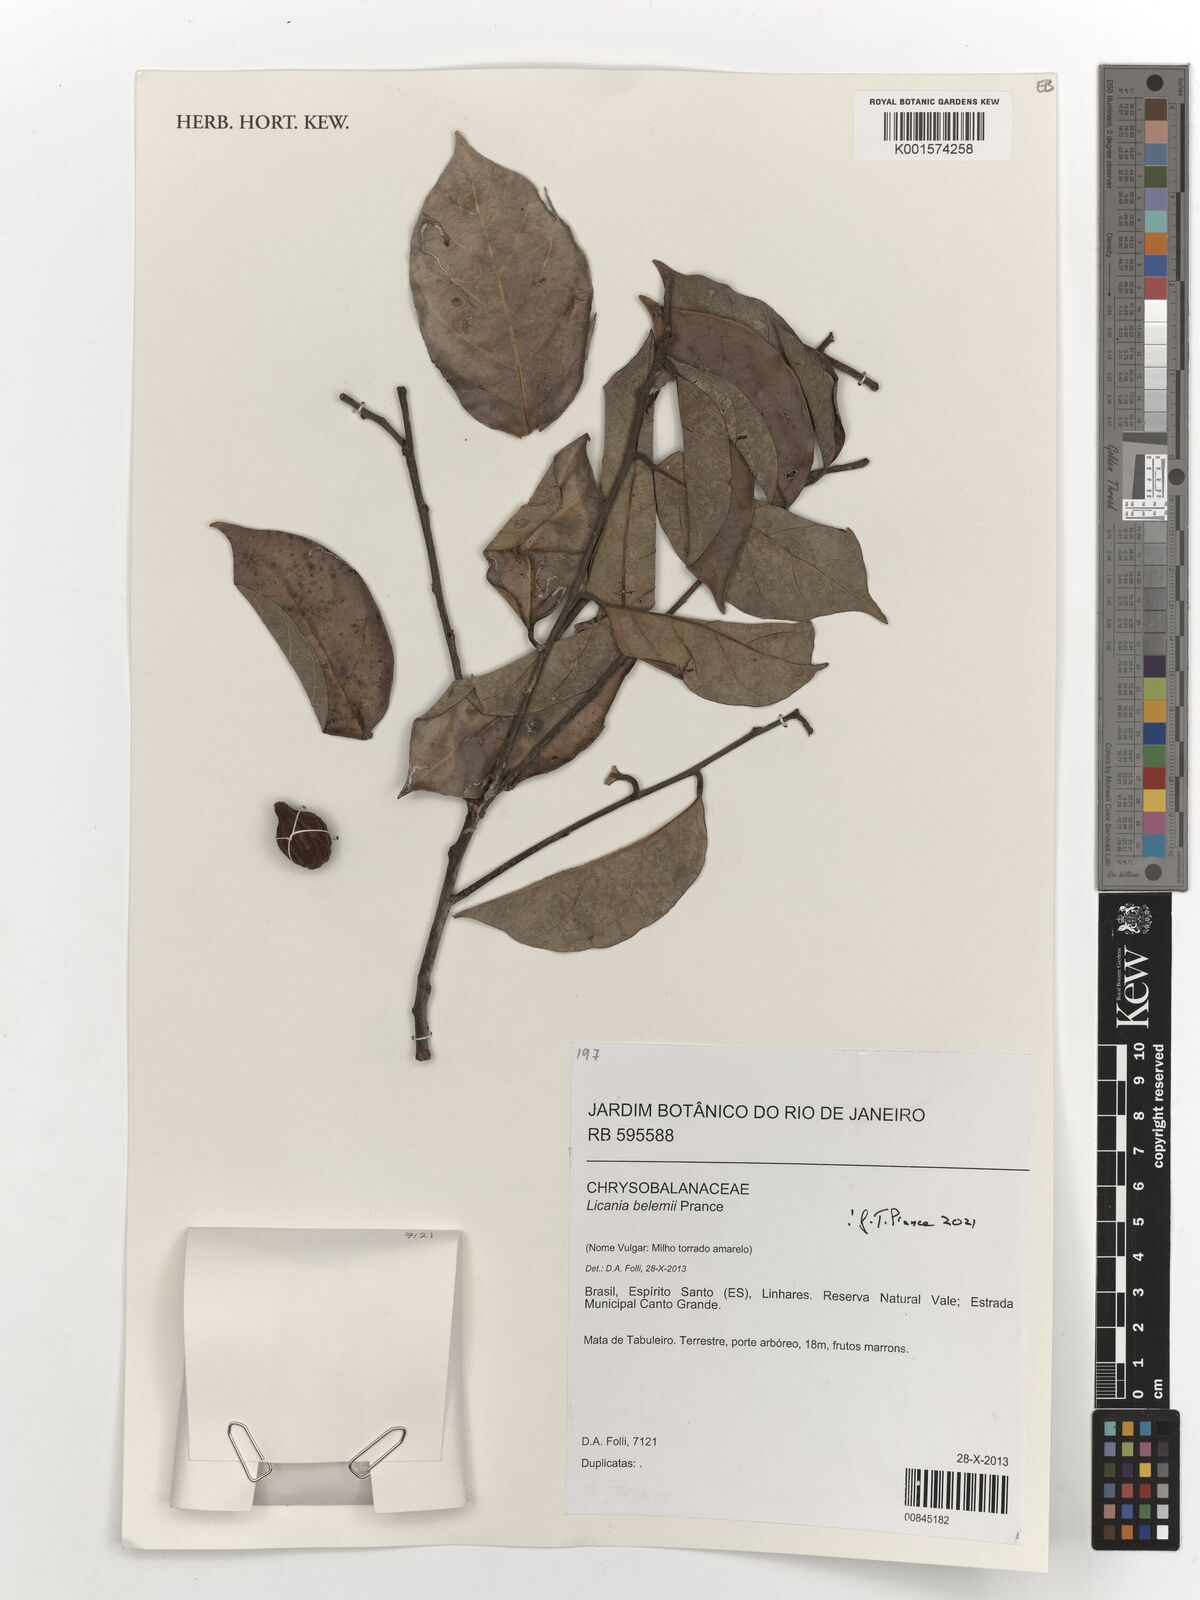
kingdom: Plantae
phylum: Tracheophyta
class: Magnoliopsida
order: Malpighiales
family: Chrysobalanaceae
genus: Licania
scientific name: Licania belemii
